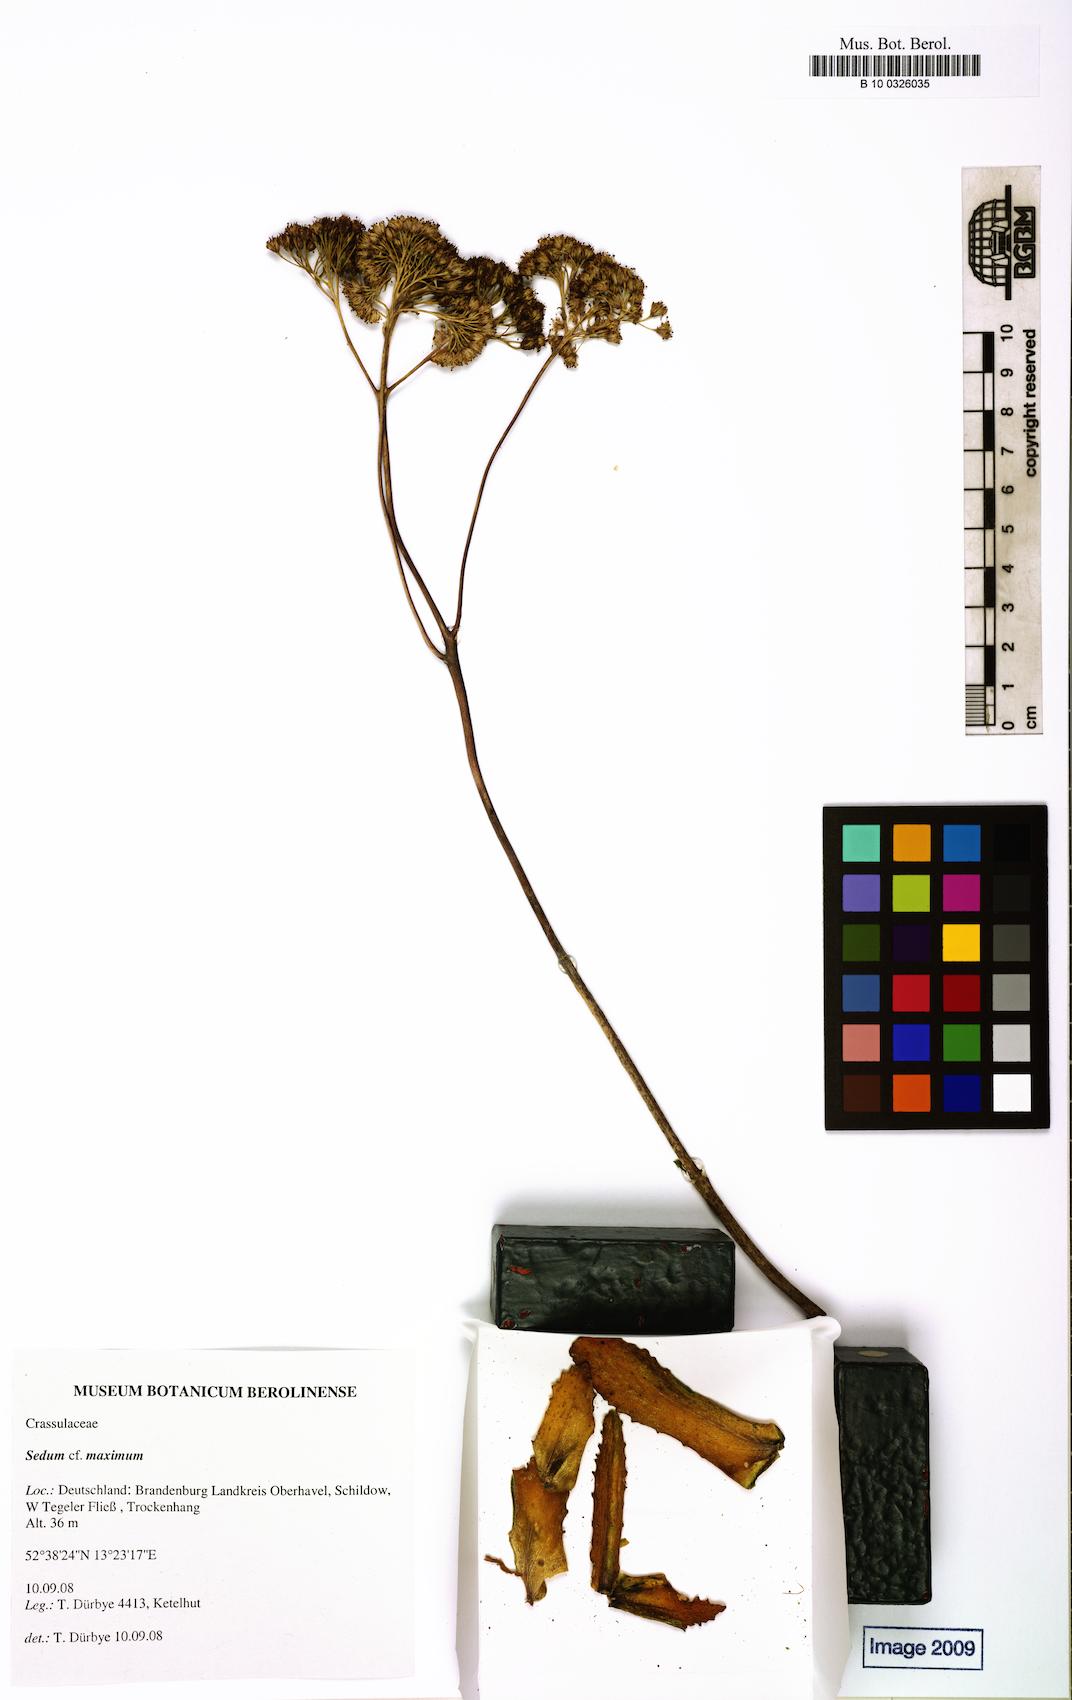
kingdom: Plantae
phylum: Tracheophyta
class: Magnoliopsida
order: Saxifragales
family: Crassulaceae
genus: Hylotelephium
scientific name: Hylotelephium maximum
